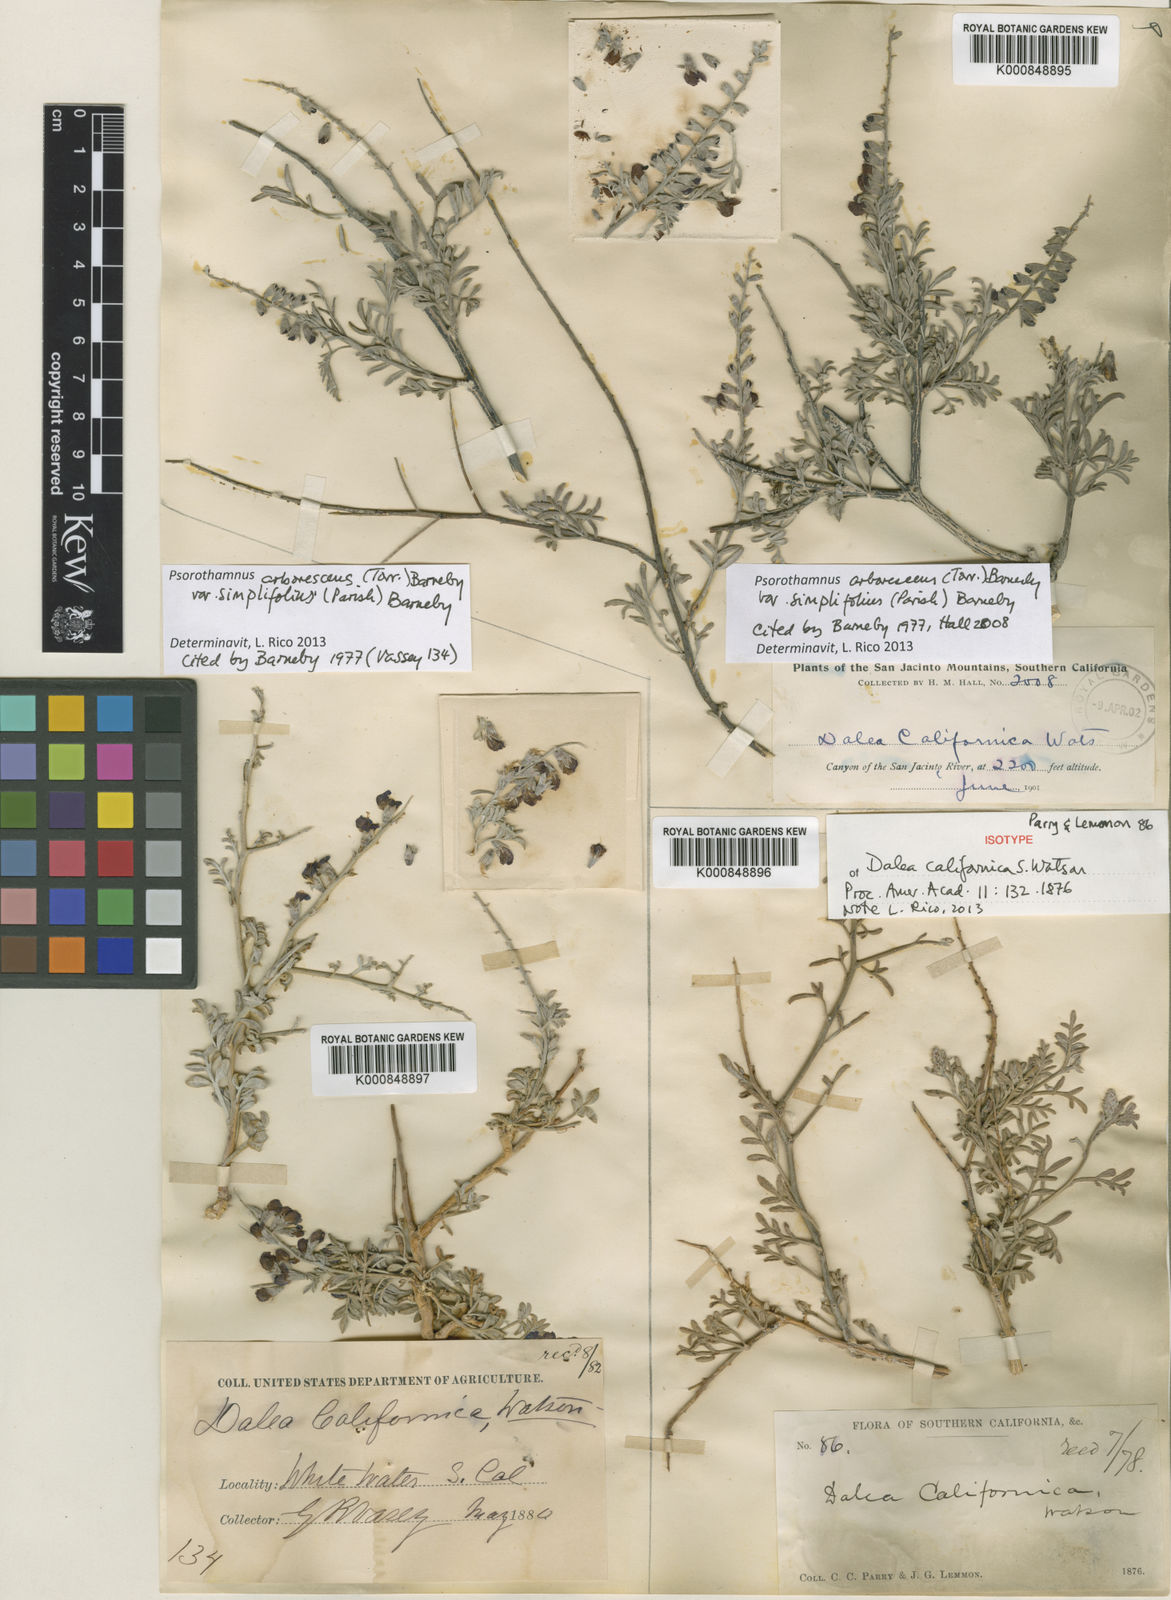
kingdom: Plantae
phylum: Tracheophyta
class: Magnoliopsida
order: Fabales
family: Fabaceae
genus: Psorothamnus
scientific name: Psorothamnus arborescens
